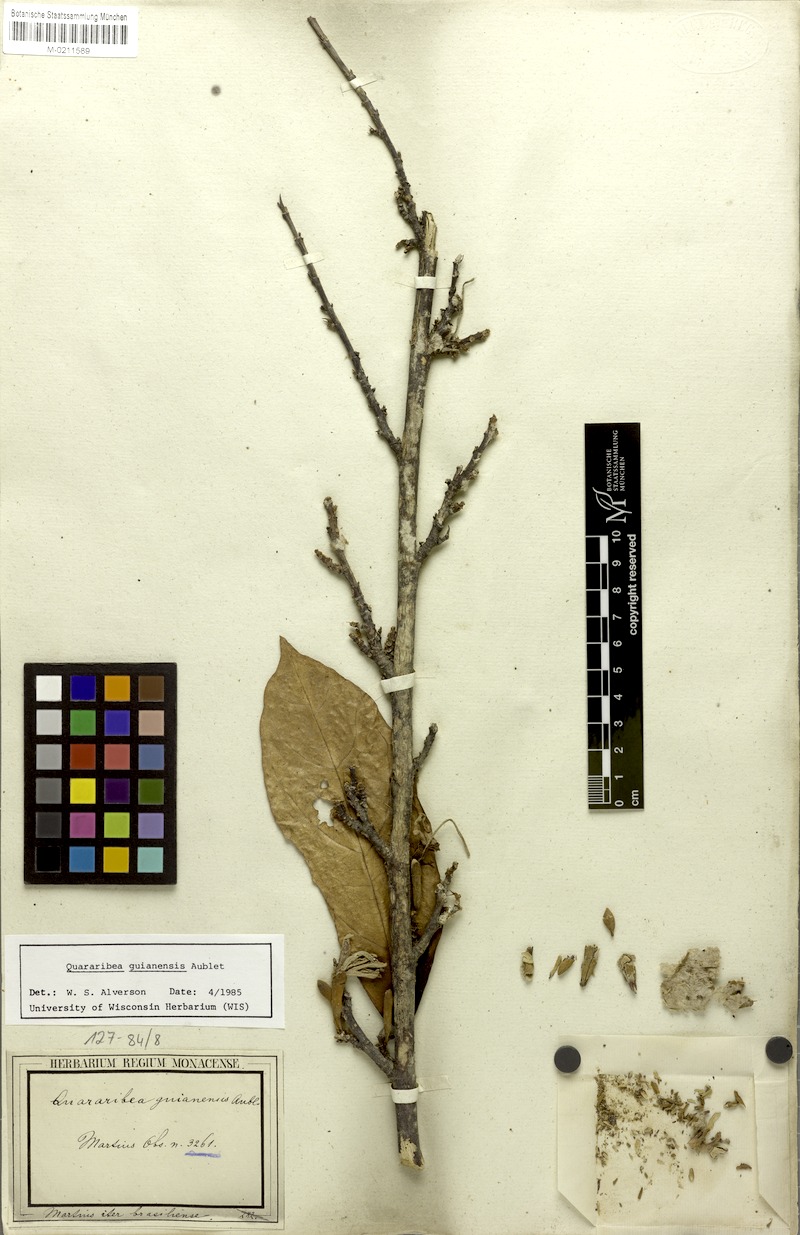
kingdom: Plantae
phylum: Tracheophyta
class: Magnoliopsida
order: Malvales
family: Malvaceae
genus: Quararibea
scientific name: Quararibea guianensis
